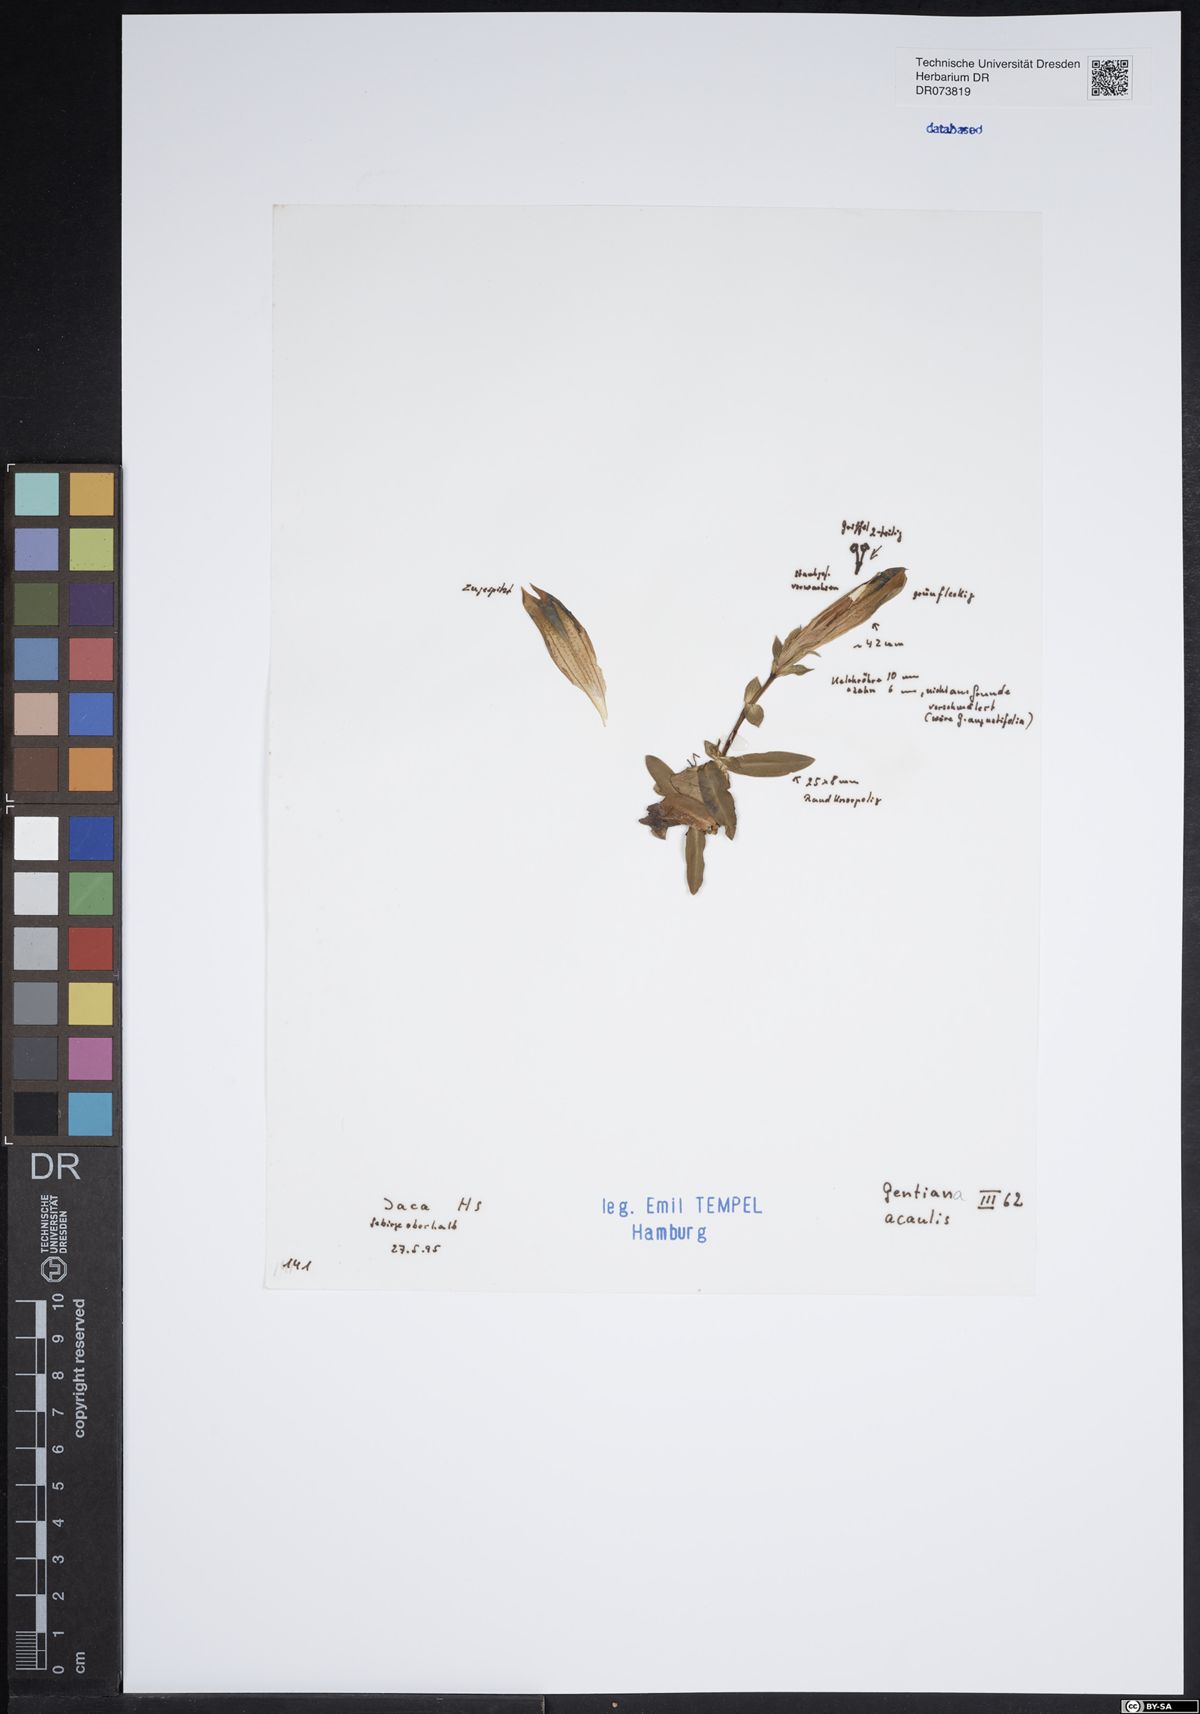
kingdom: Plantae
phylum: Tracheophyta
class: Magnoliopsida
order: Gentianales
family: Gentianaceae
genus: Gentiana
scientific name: Gentiana acaulis
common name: Trumpet gentian
